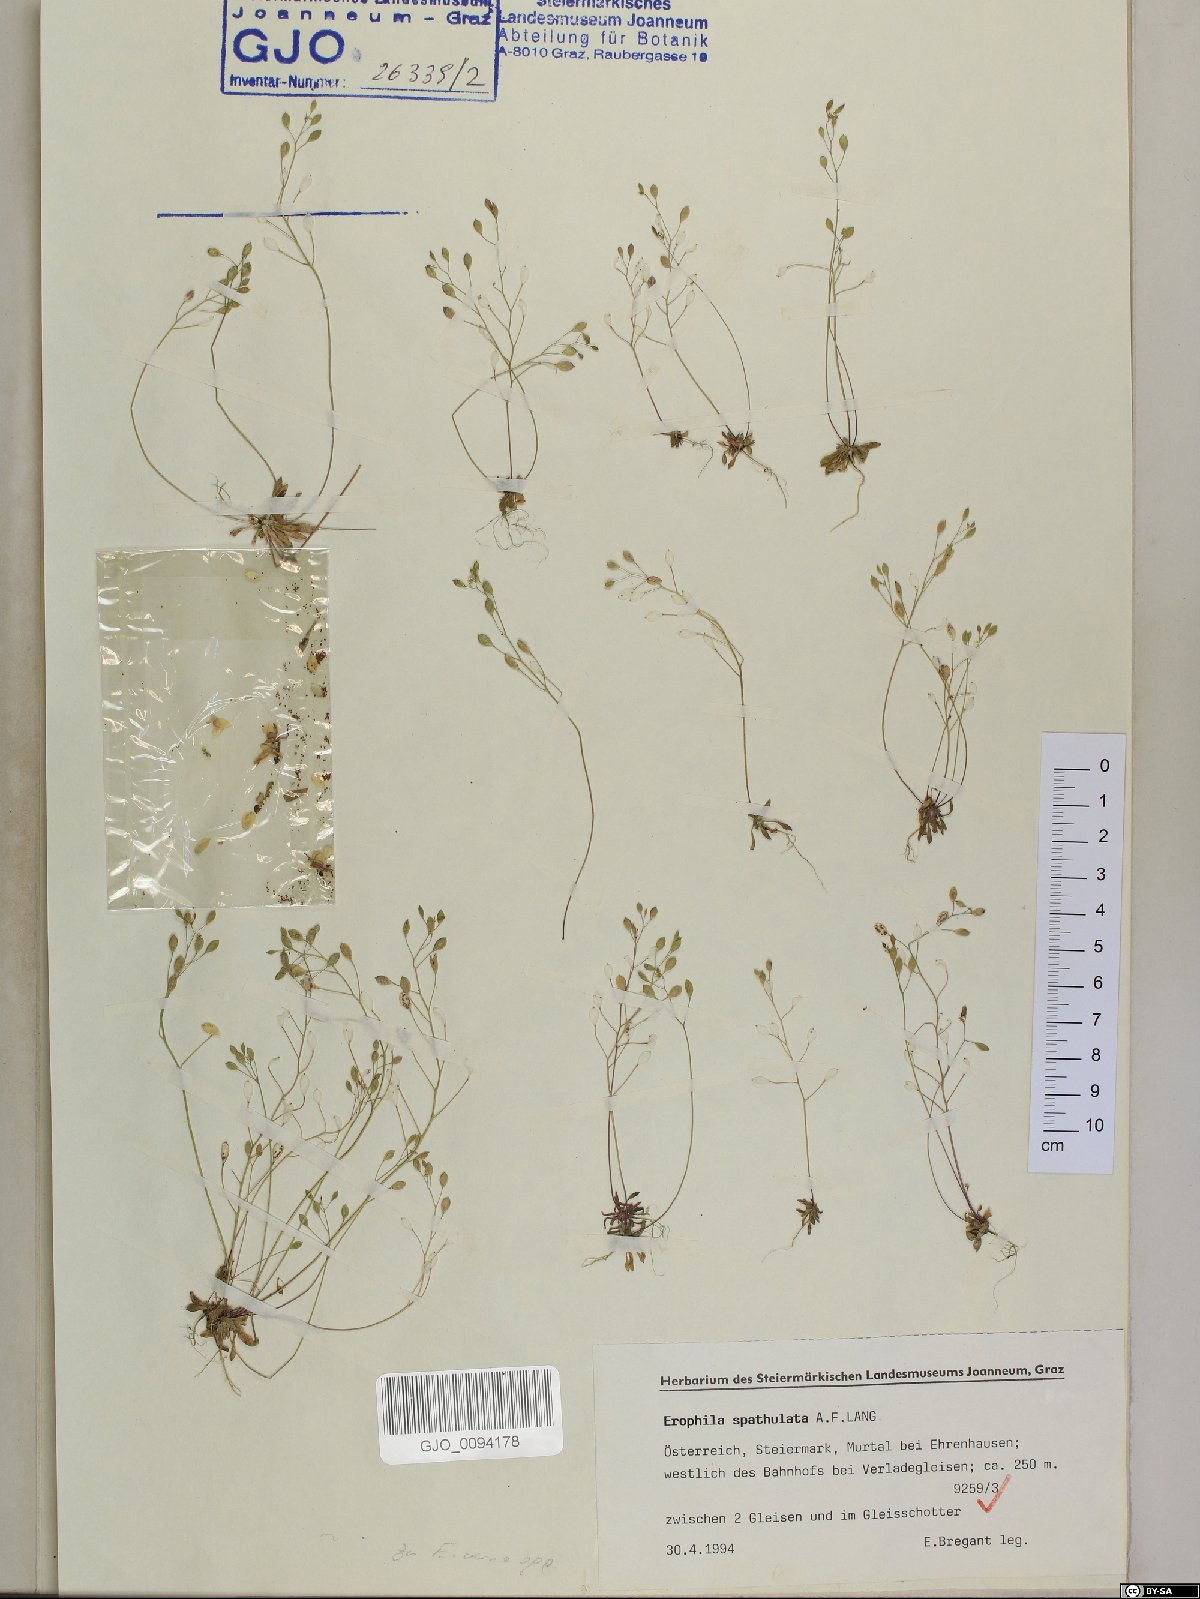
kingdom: Plantae
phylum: Tracheophyta
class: Magnoliopsida
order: Brassicales
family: Brassicaceae
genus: Draba
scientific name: Draba verna
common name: Spring draba
